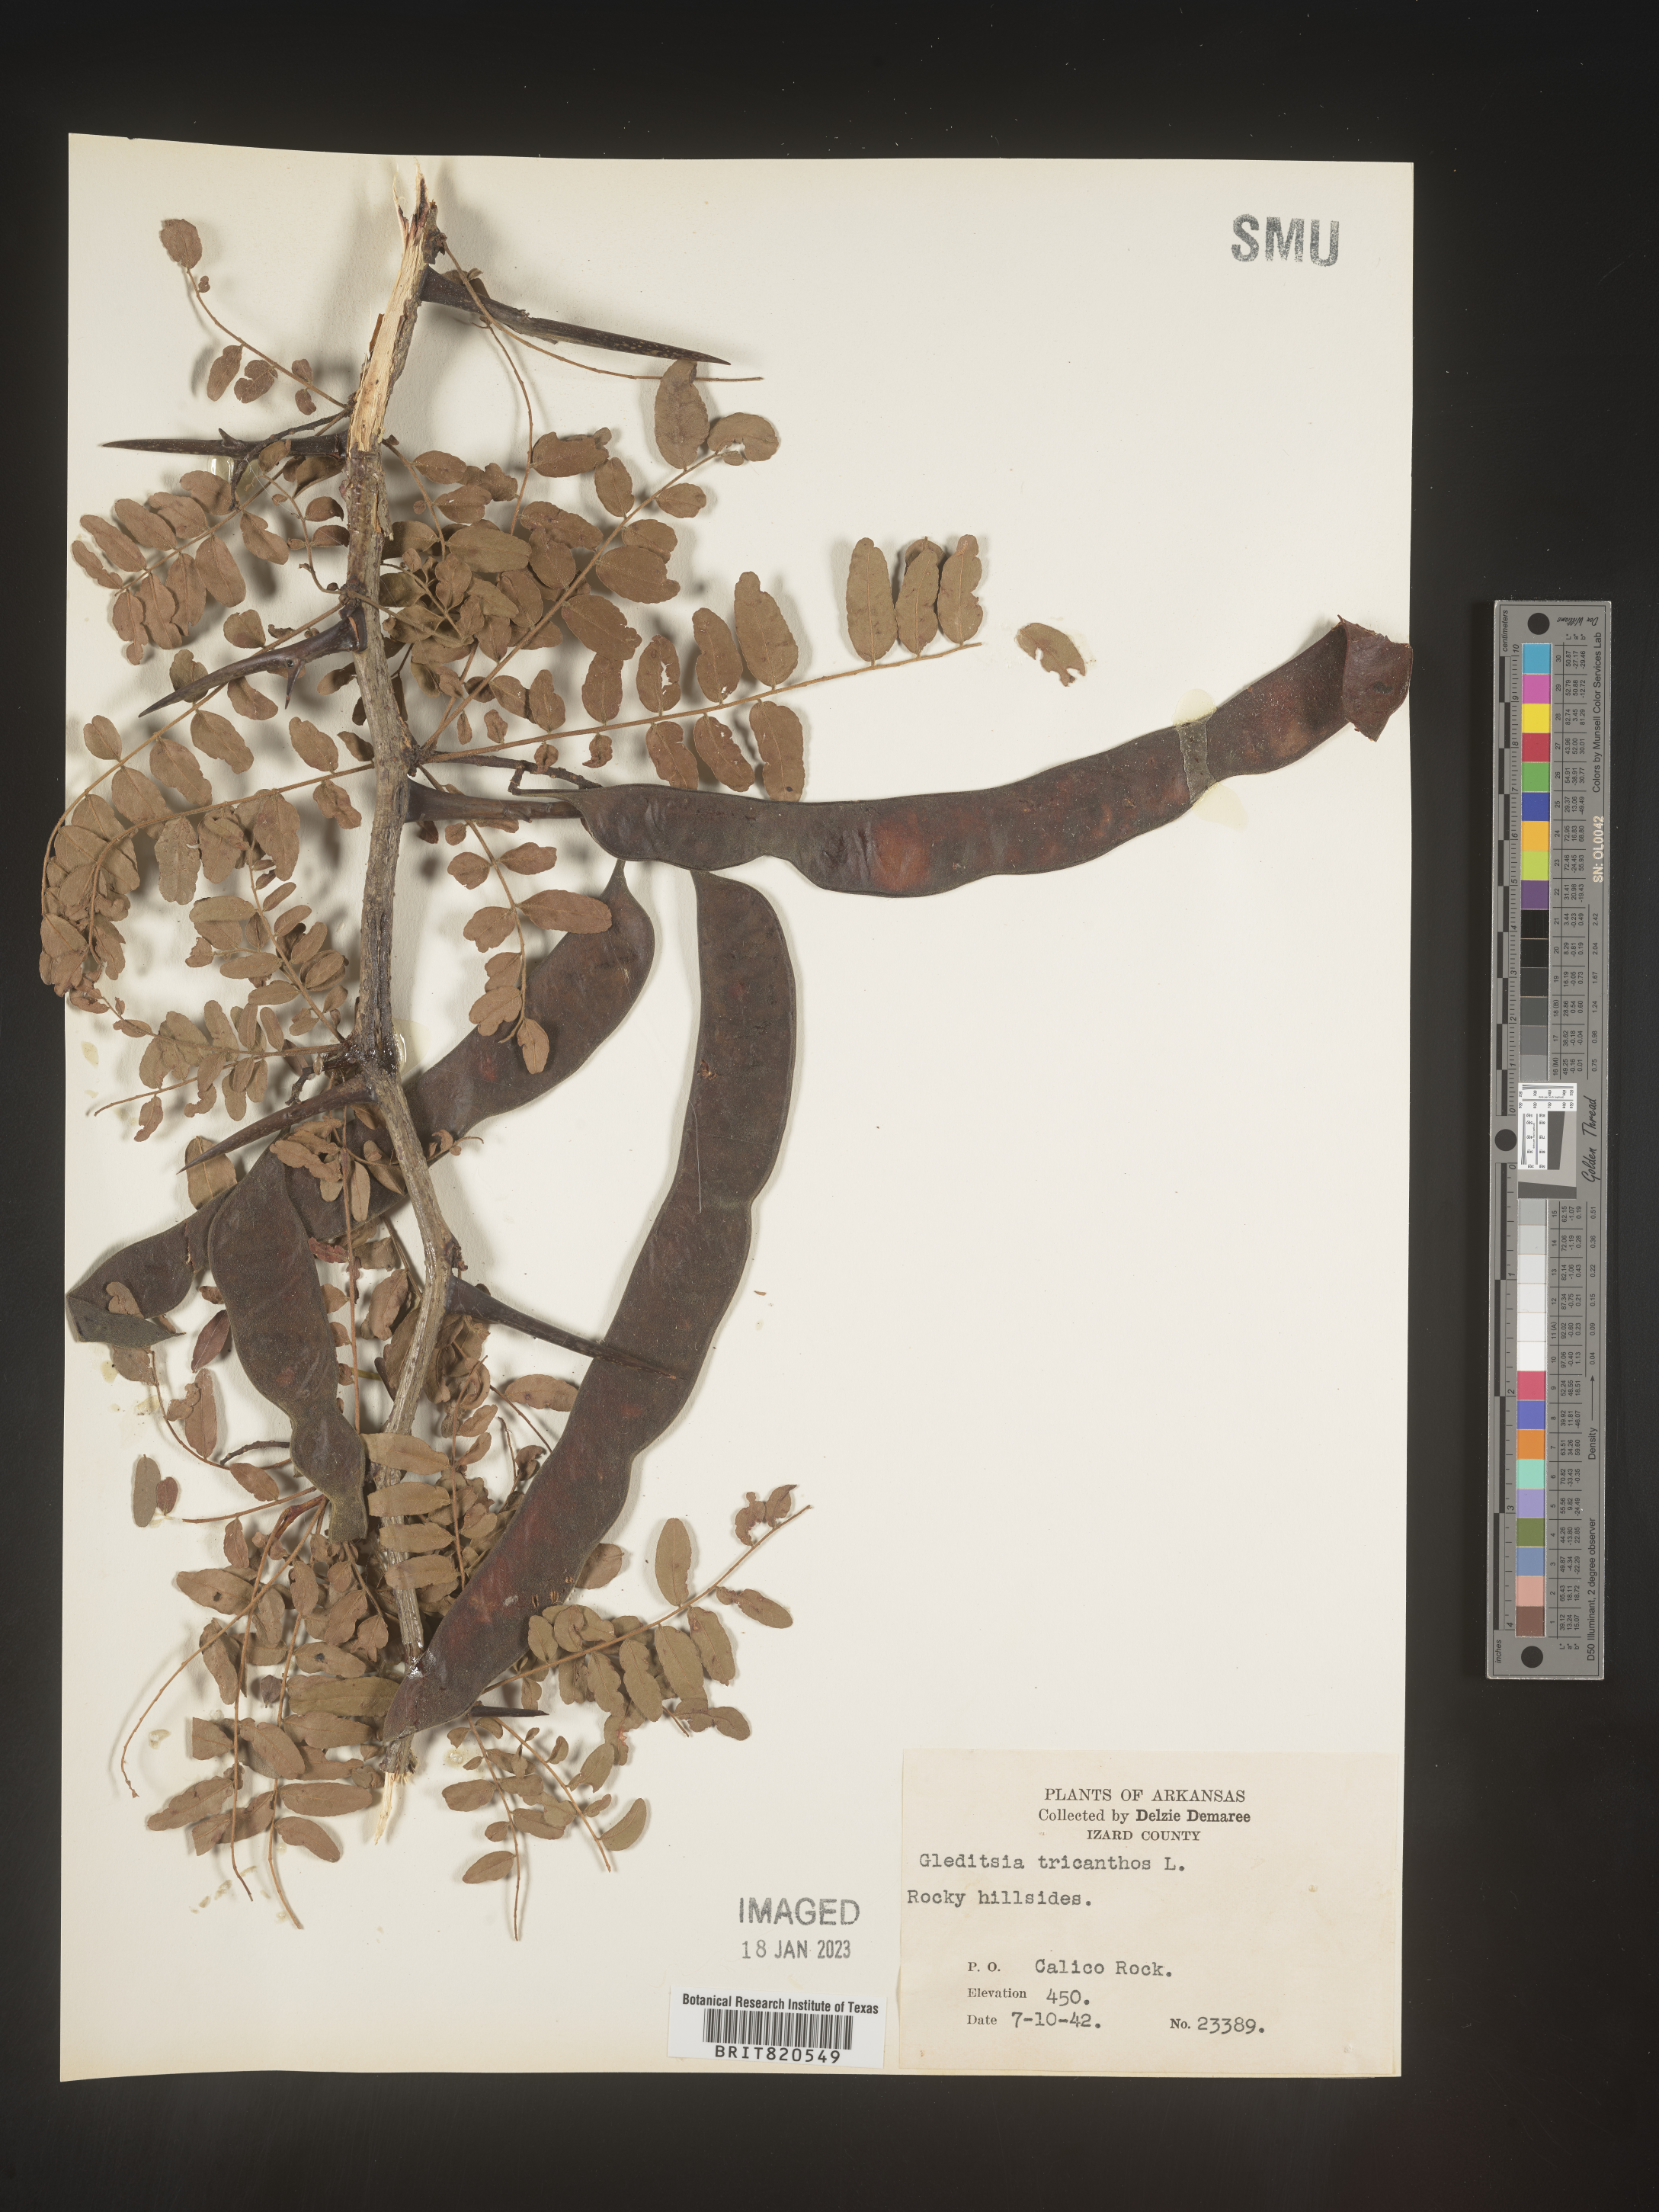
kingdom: Plantae
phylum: Tracheophyta
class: Magnoliopsida
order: Fabales
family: Fabaceae
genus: Gleditsia
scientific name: Gleditsia triacanthos
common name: Common honeylocust
